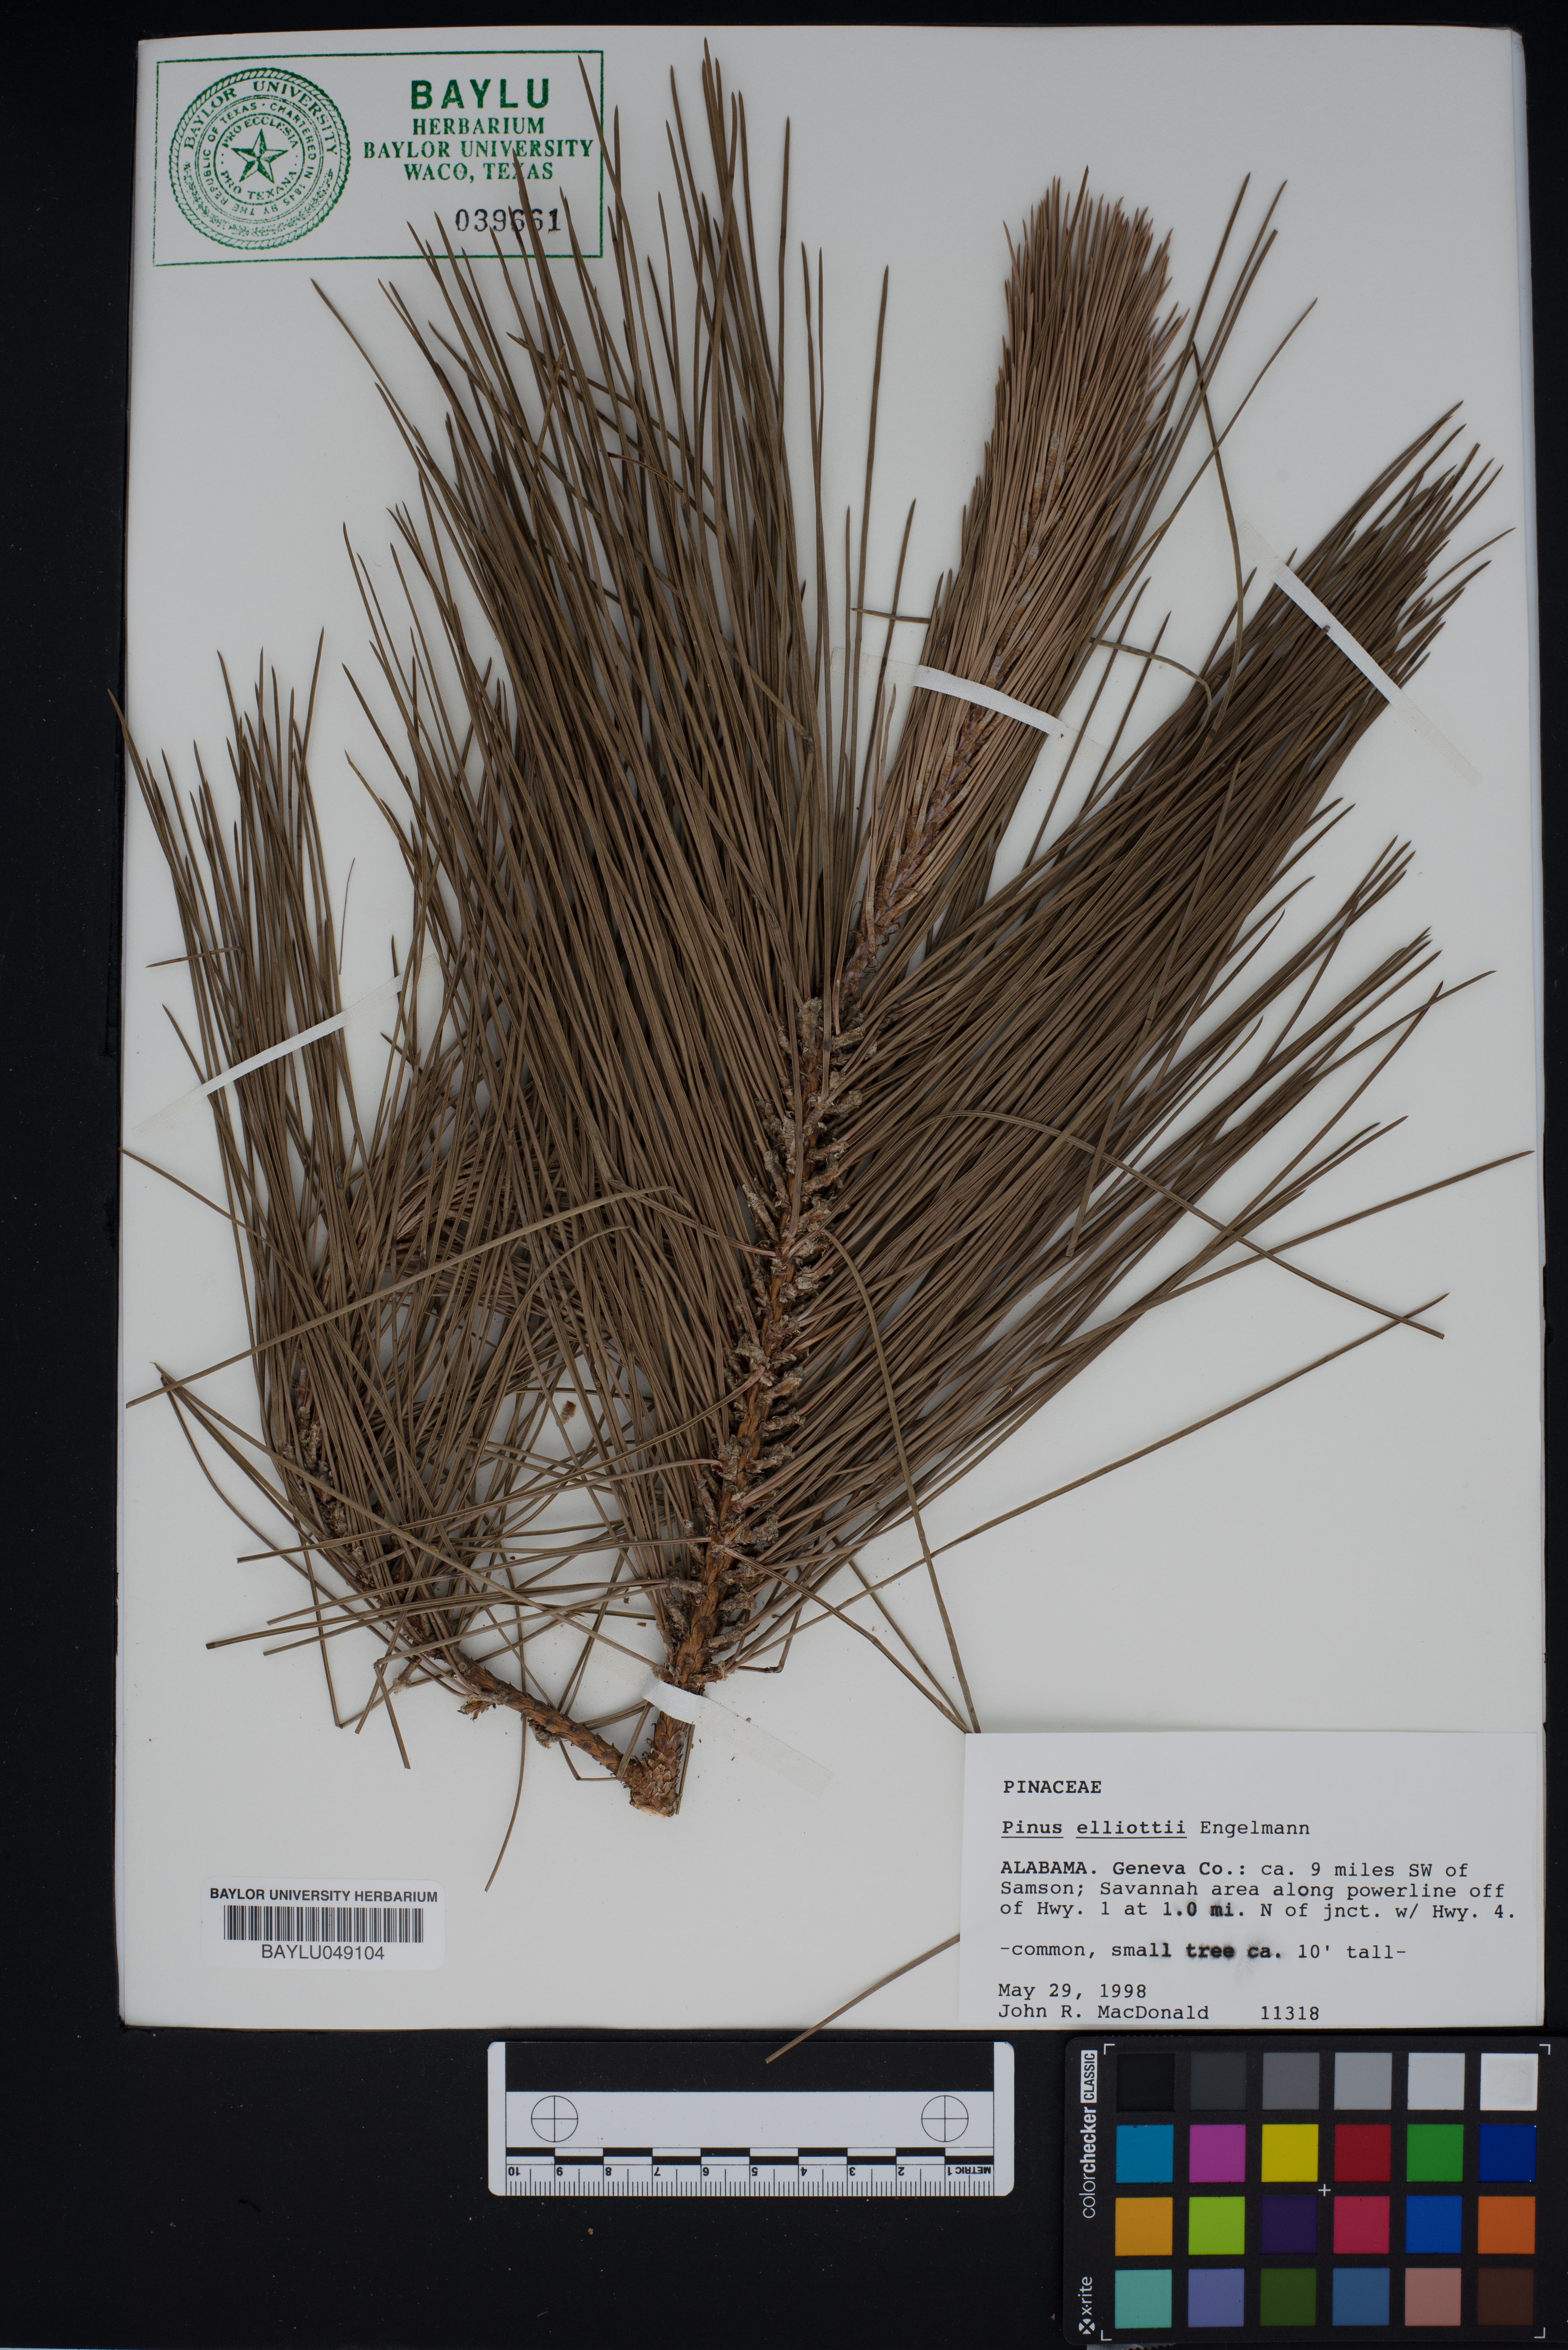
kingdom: Plantae
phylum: Tracheophyta
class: Pinopsida
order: Pinales
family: Pinaceae
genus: Pinus
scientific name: Pinus elliottii
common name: Slash pine
